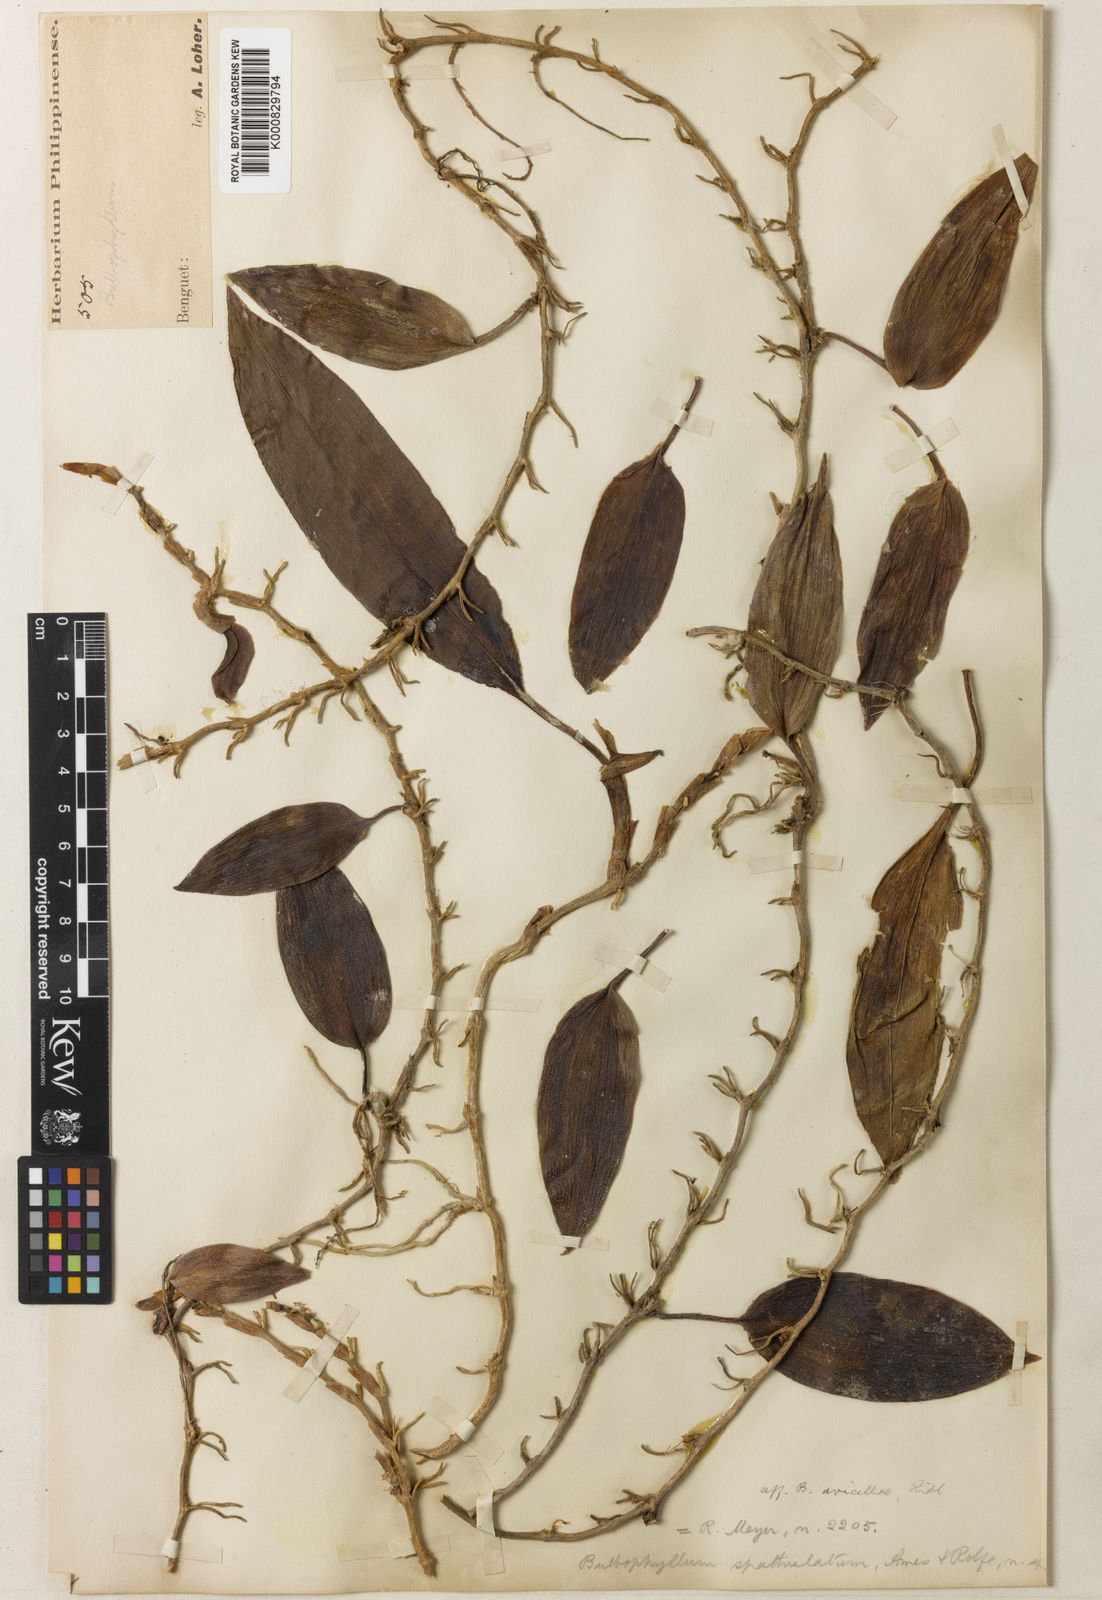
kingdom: Plantae
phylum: Tracheophyta
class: Liliopsida
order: Asparagales
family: Orchidaceae
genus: Bulbophyllum
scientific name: Bulbophyllum vagans
